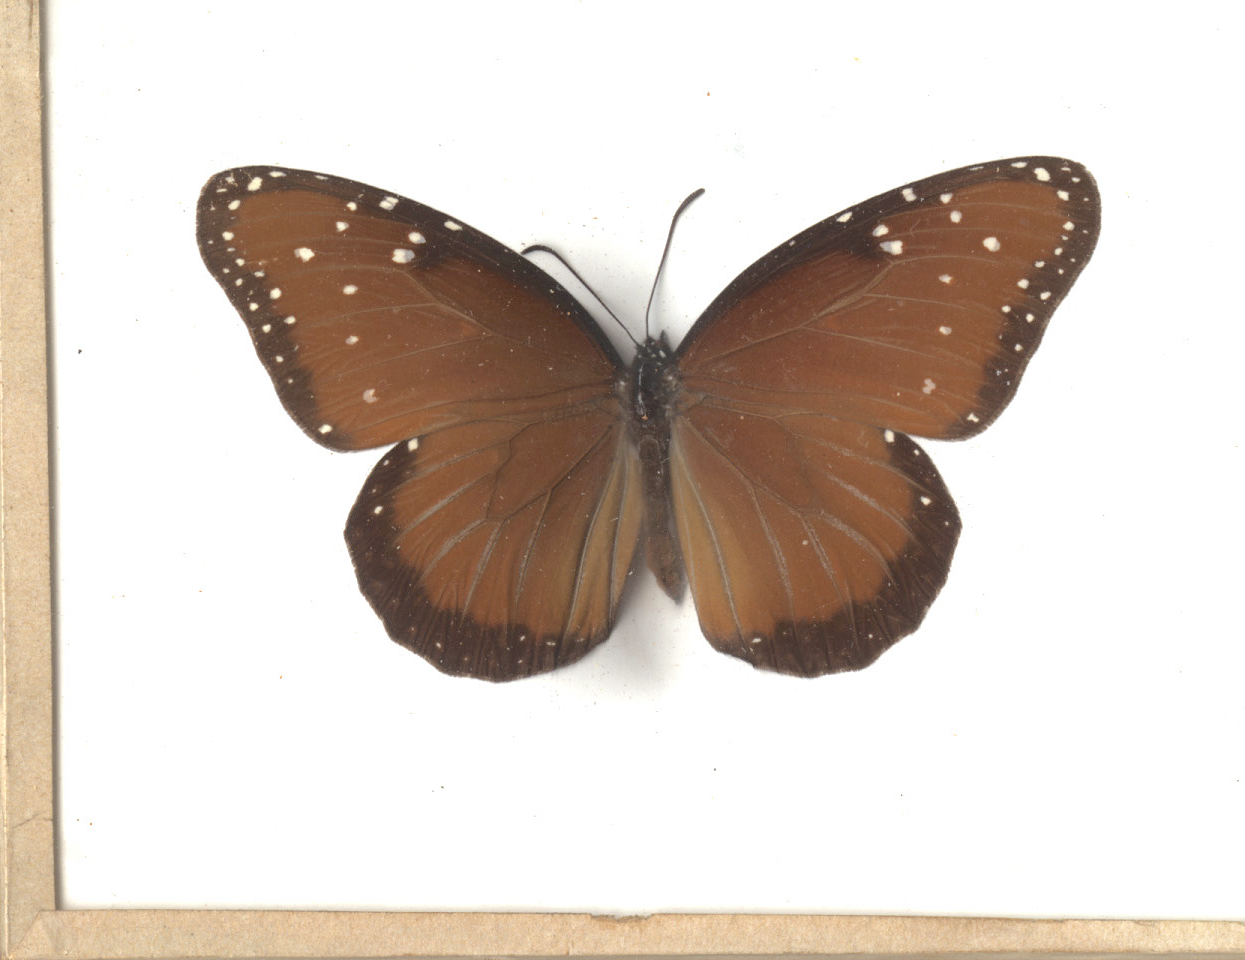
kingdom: Animalia
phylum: Arthropoda
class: Insecta
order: Lepidoptera
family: Nymphalidae
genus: Danaus
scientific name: Danaus gilippus
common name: Queen
